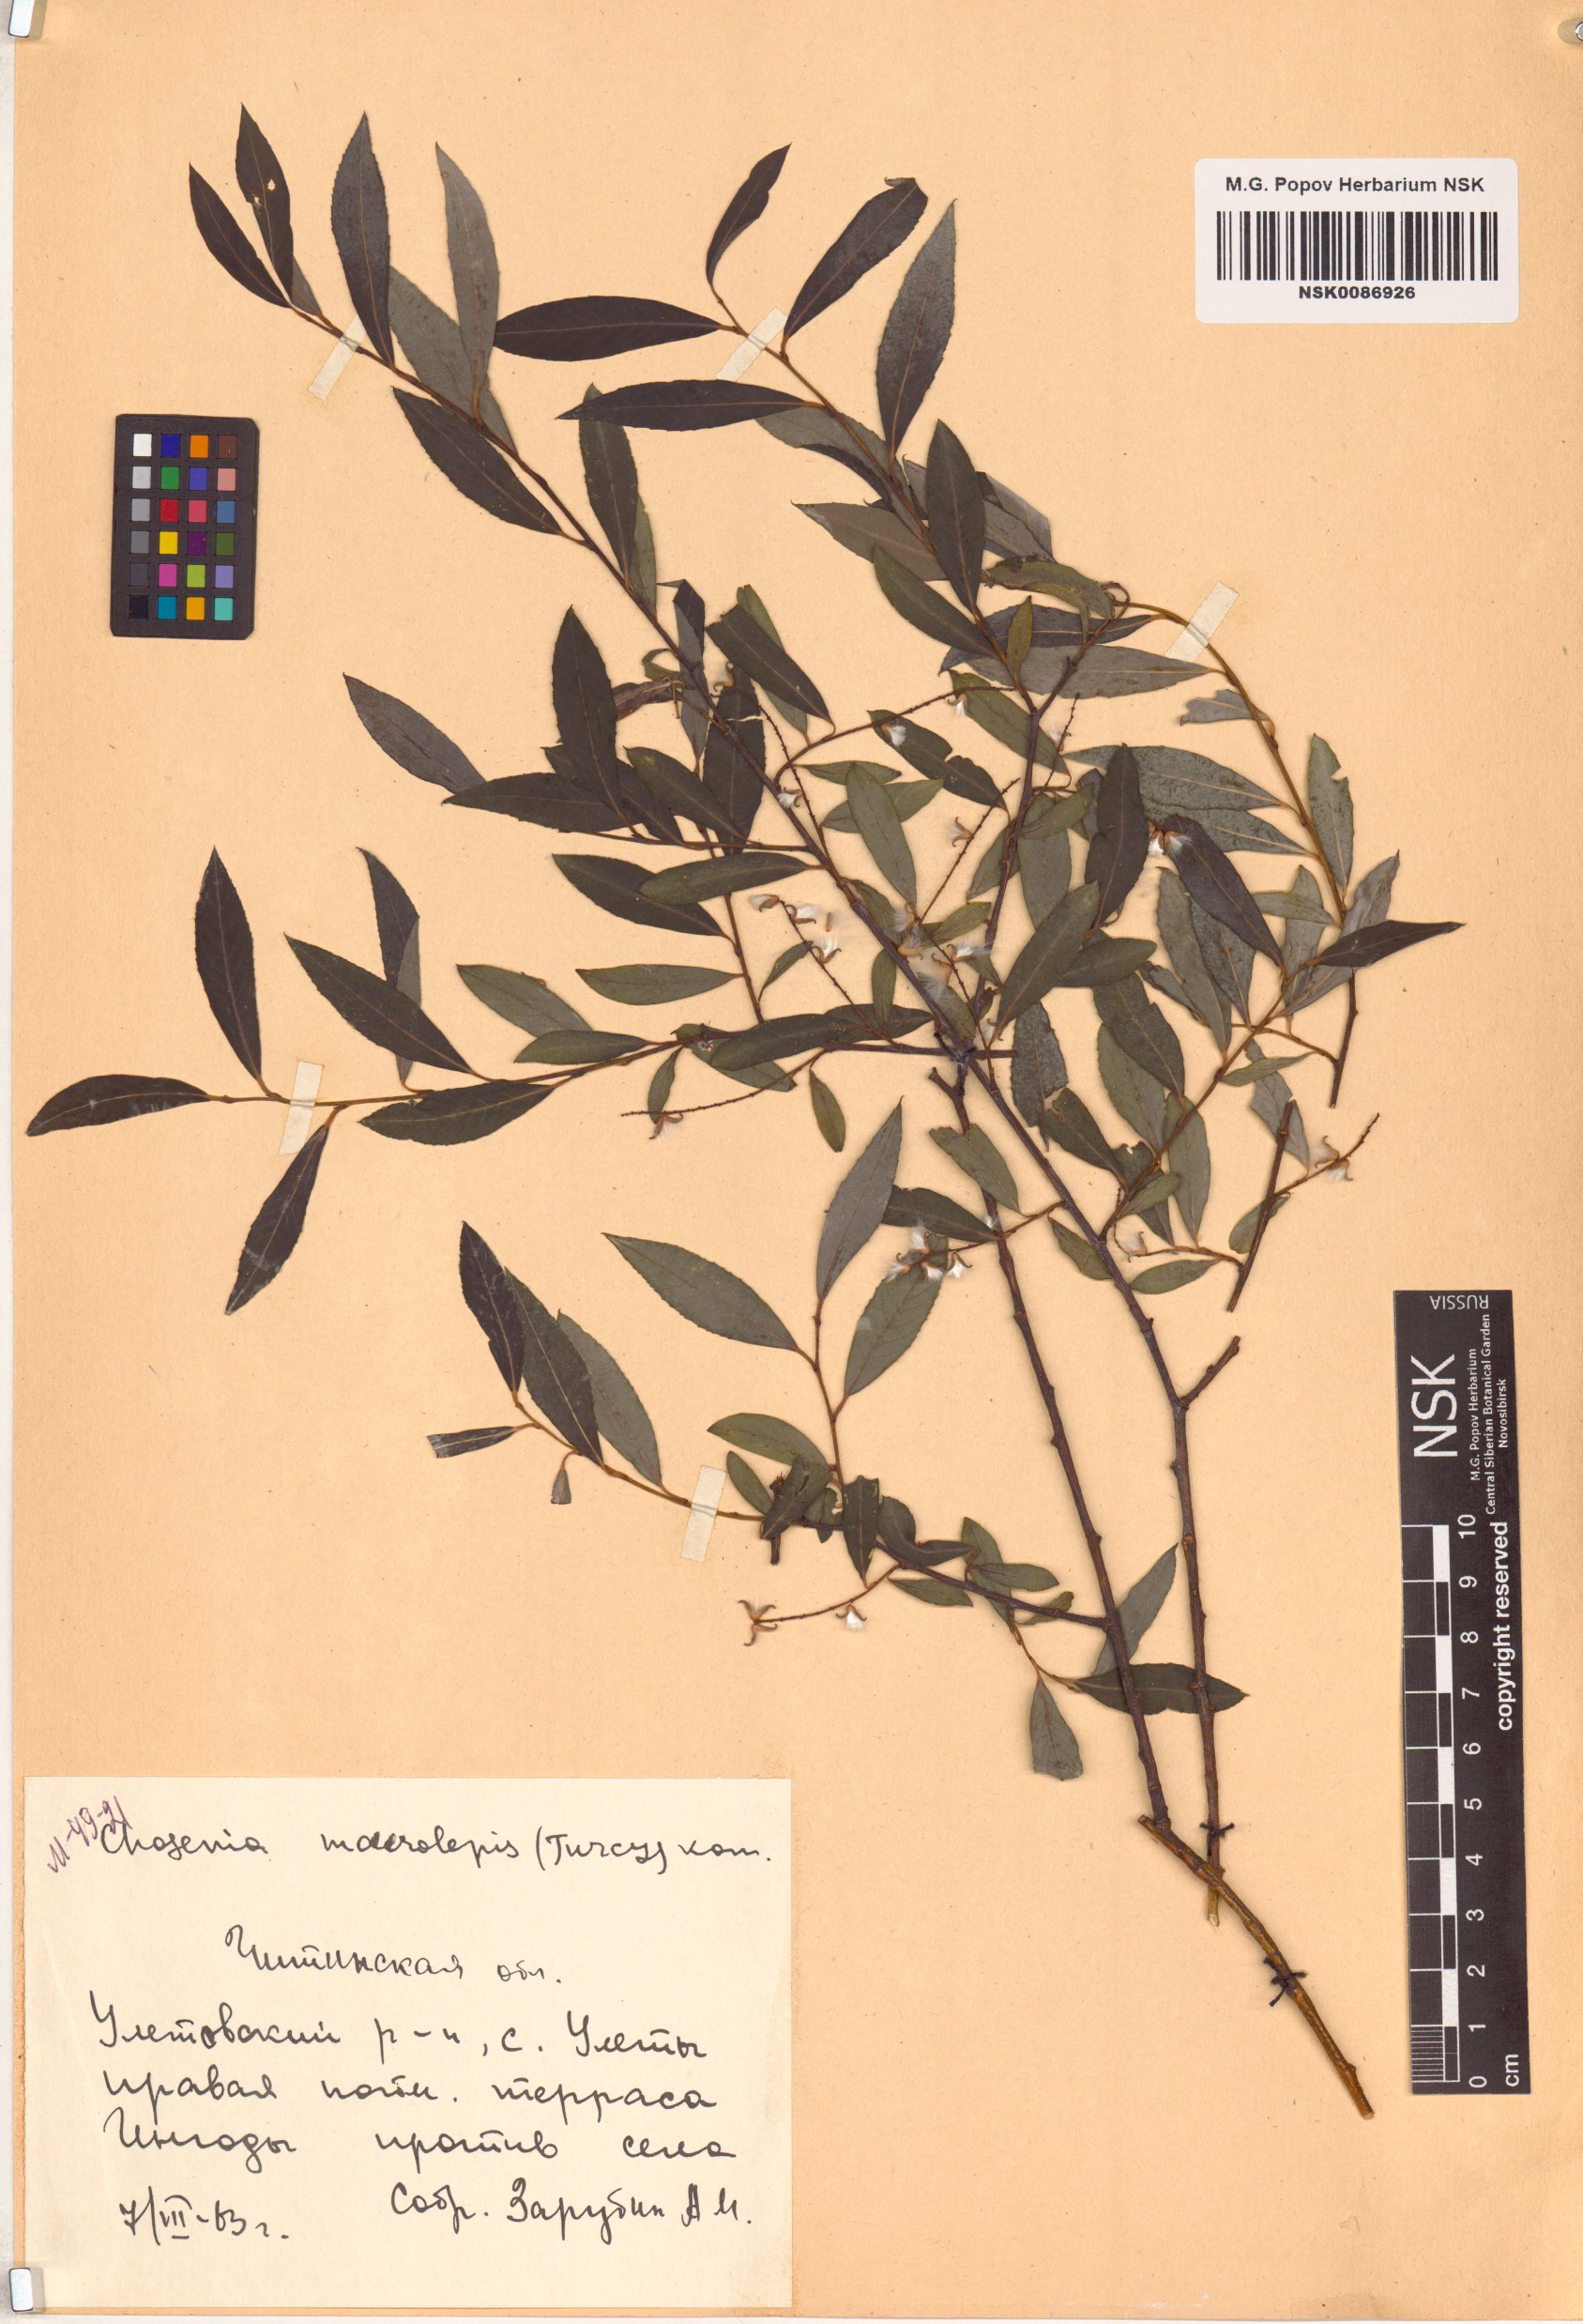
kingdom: Plantae
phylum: Tracheophyta
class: Magnoliopsida
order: Malpighiales
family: Salicaceae
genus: Chosenia
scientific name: Chosenia arbutifolia
